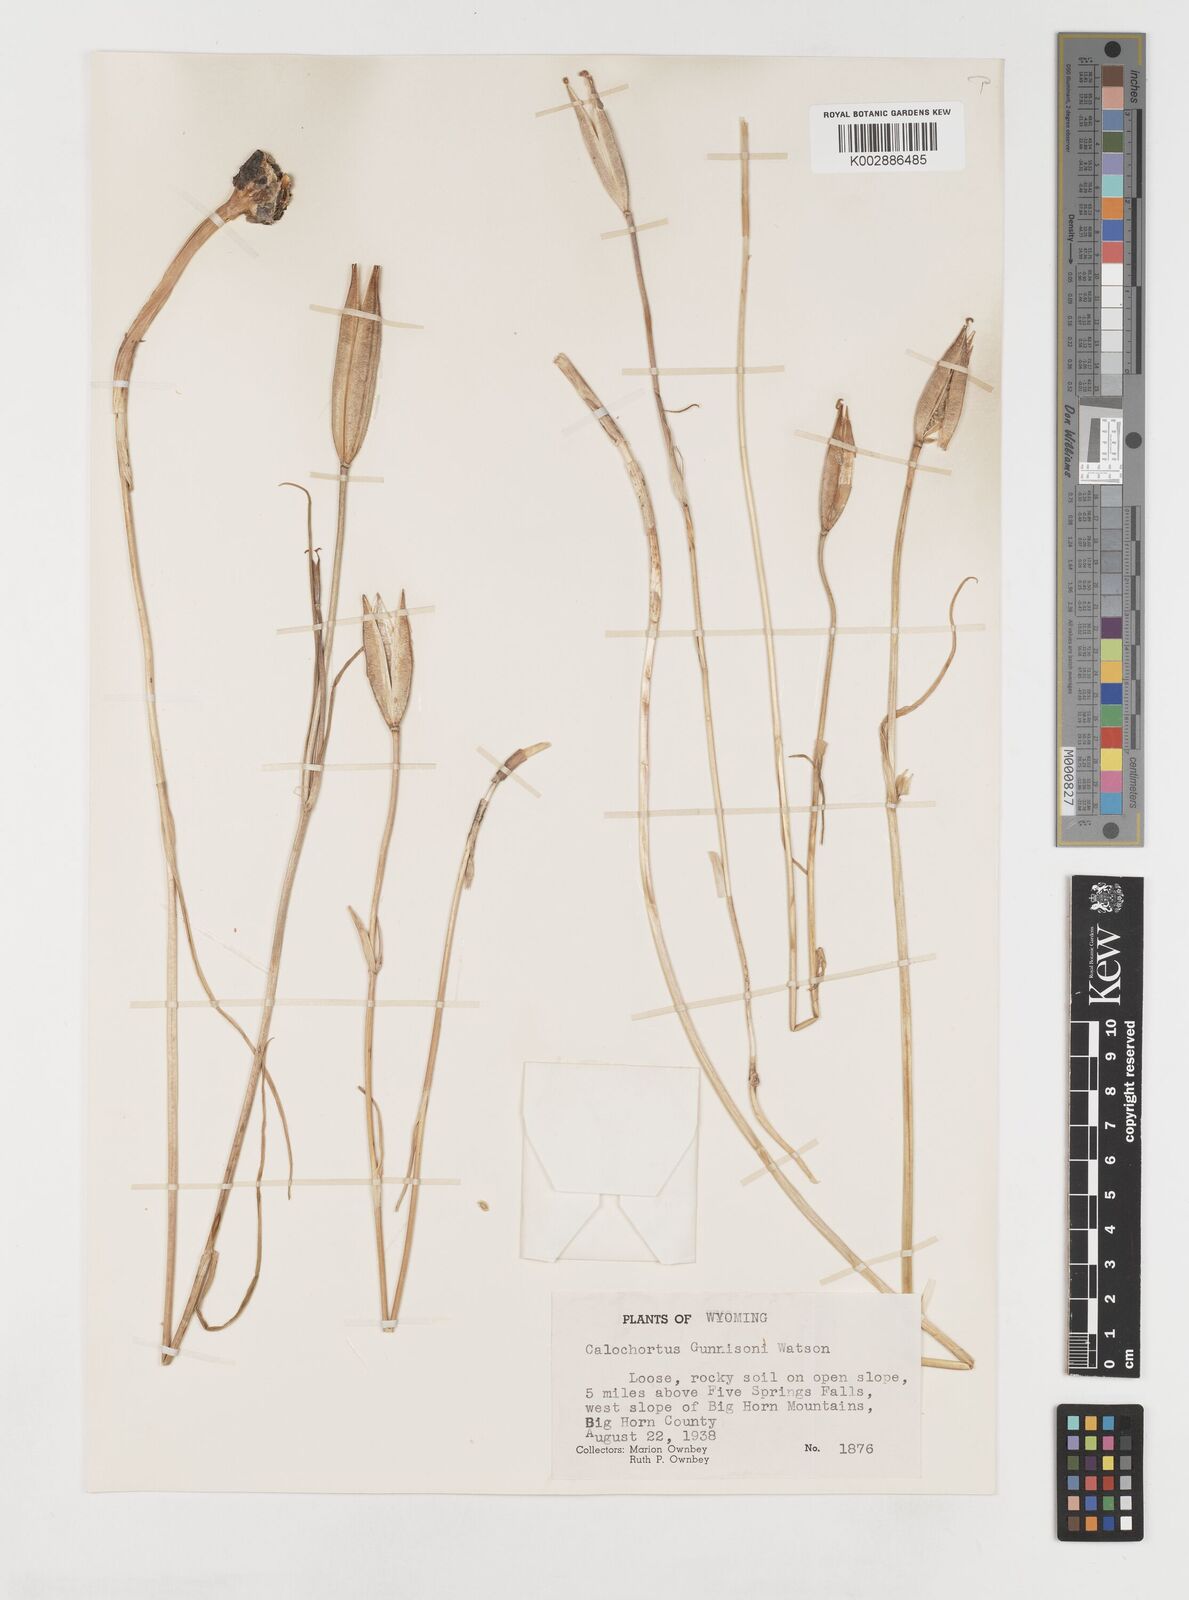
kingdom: Plantae
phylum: Tracheophyta
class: Liliopsida
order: Liliales
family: Liliaceae
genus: Calochortus
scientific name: Calochortus gunnisonii
